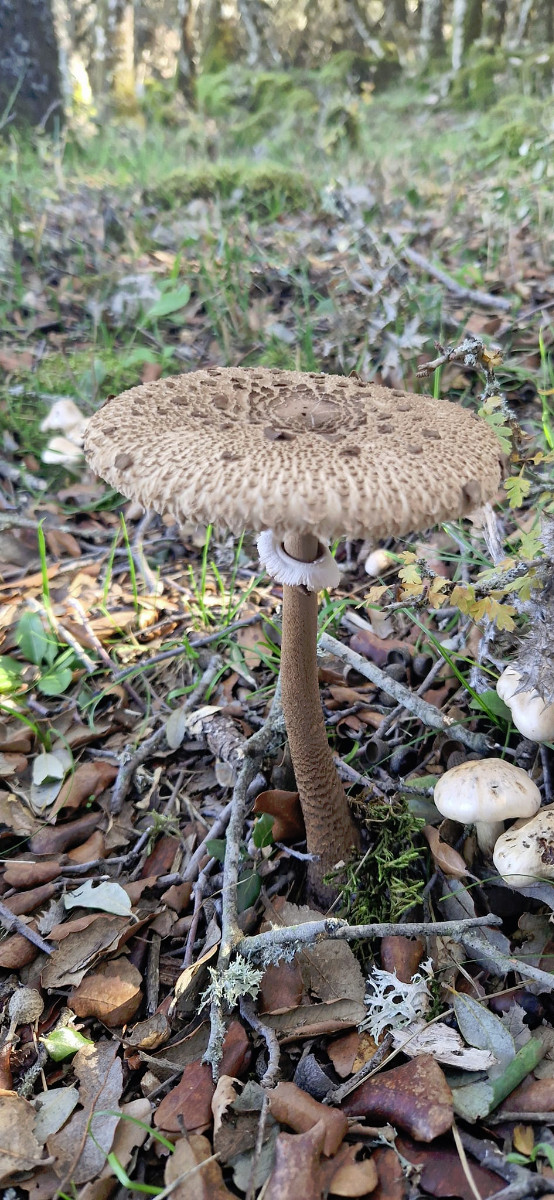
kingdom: Fungi
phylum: Basidiomycota
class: Agaricomycetes
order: Agaricales
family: Agaricaceae
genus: Macrolepiota
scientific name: Macrolepiota
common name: kæmpeparasolhat
